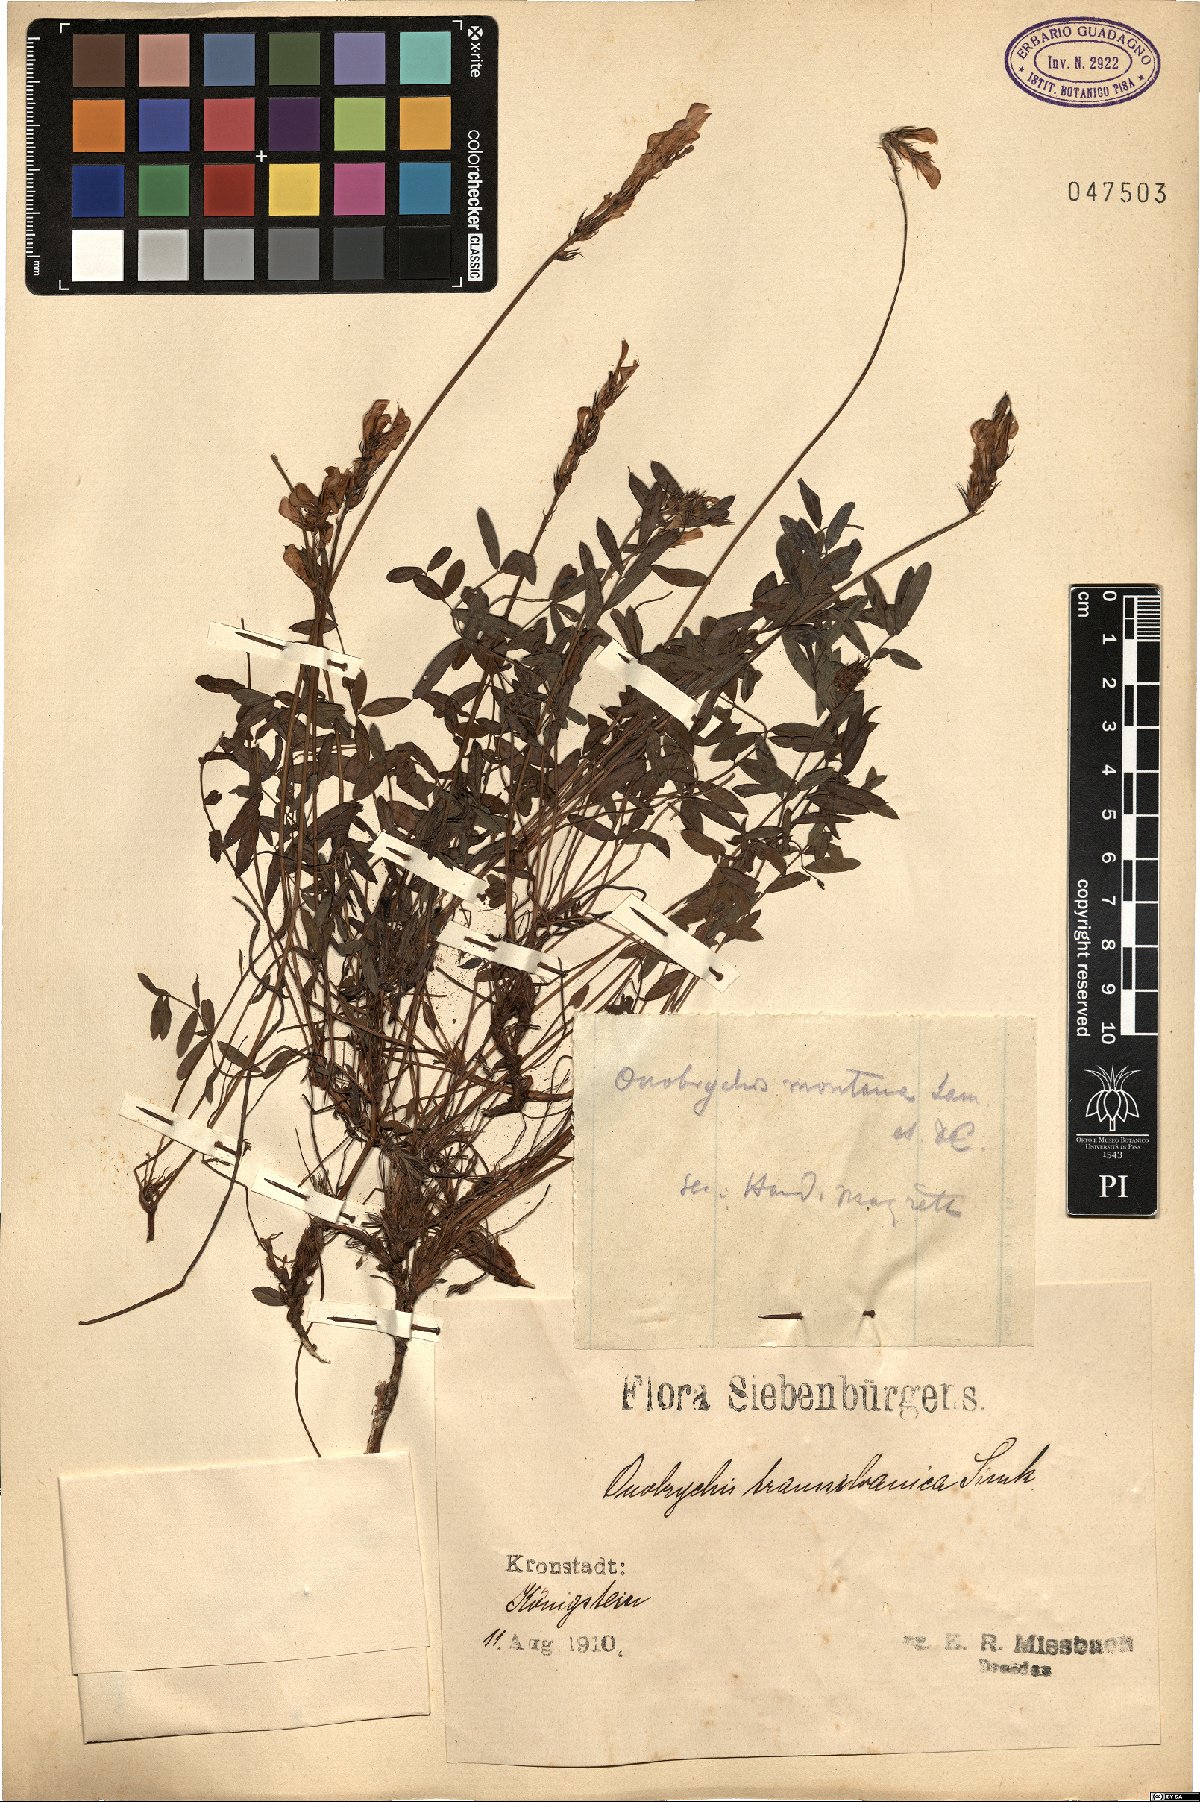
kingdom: Plantae
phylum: Tracheophyta
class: Magnoliopsida
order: Fabales
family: Fabaceae
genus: Onobrychis
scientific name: Onobrychis montana
